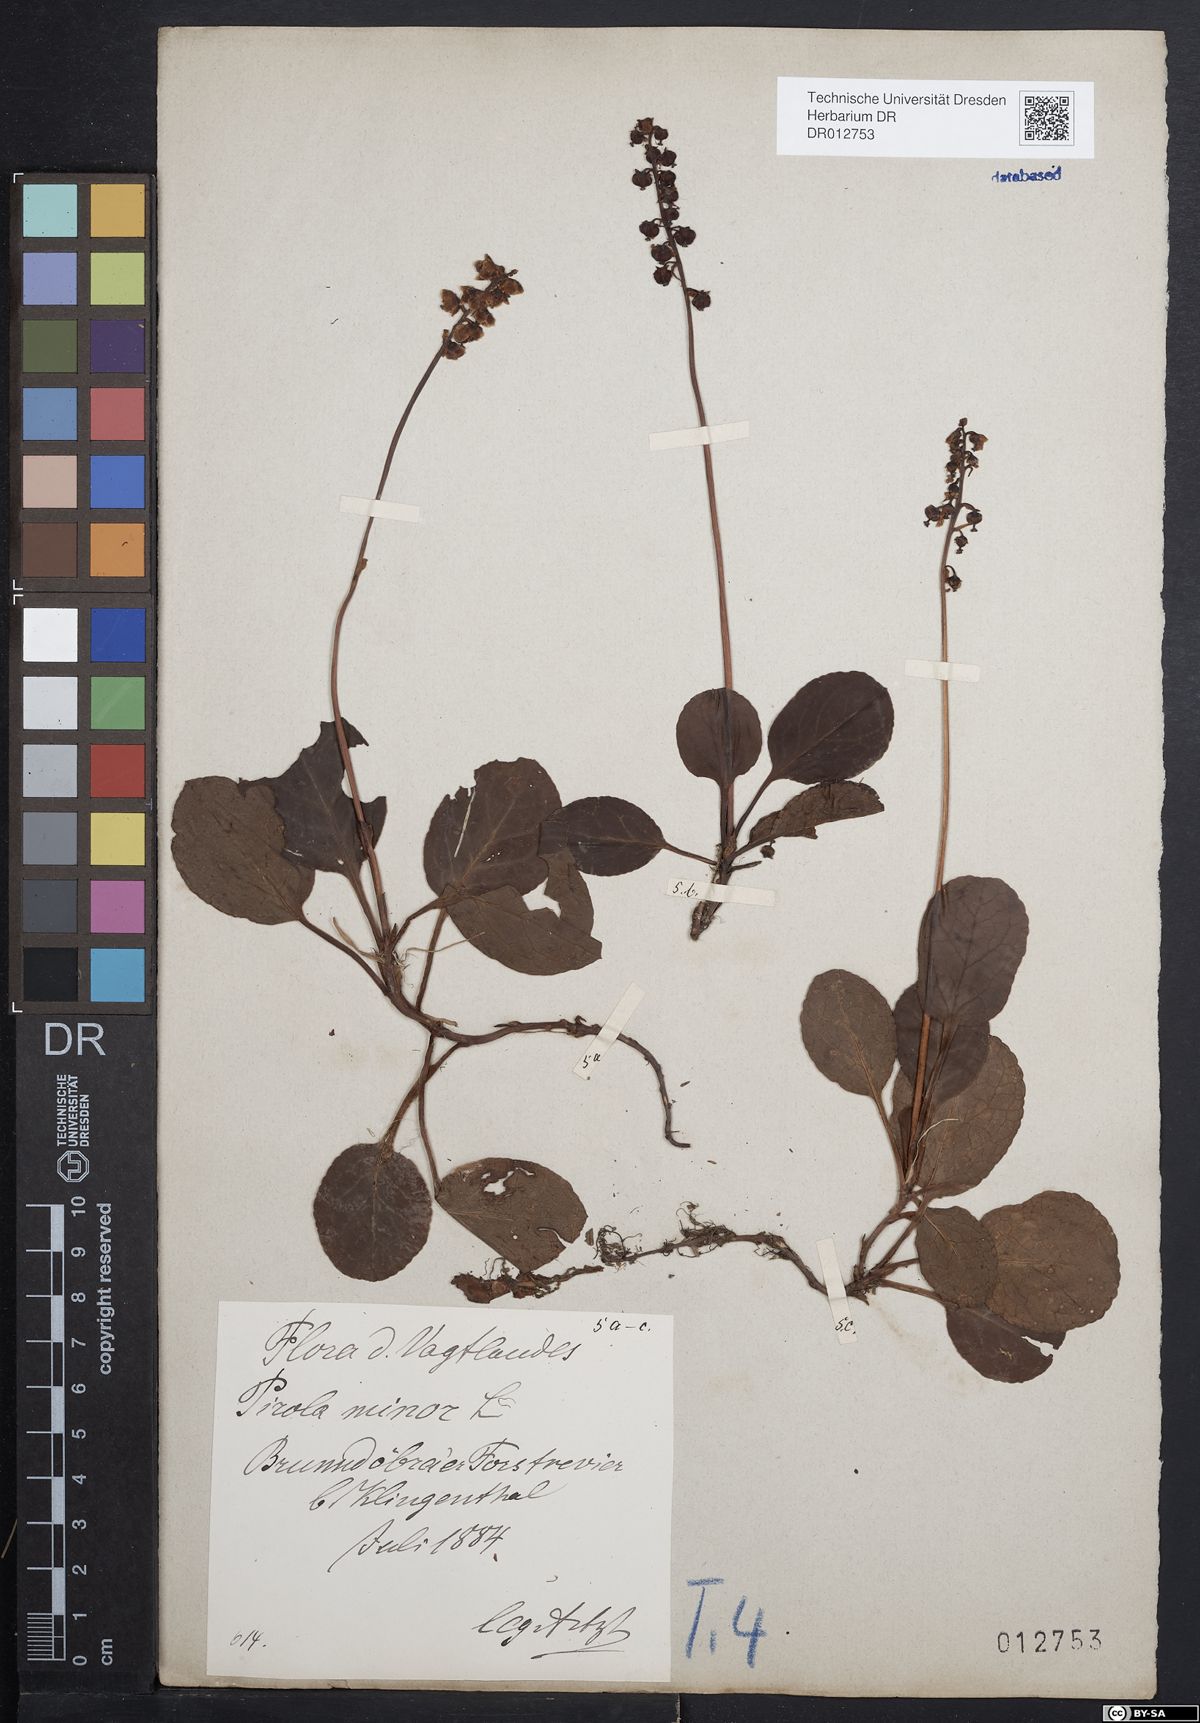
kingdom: Plantae
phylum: Tracheophyta
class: Magnoliopsida
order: Ericales
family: Ericaceae
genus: Pyrola
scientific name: Pyrola minor
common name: Common wintergreen
